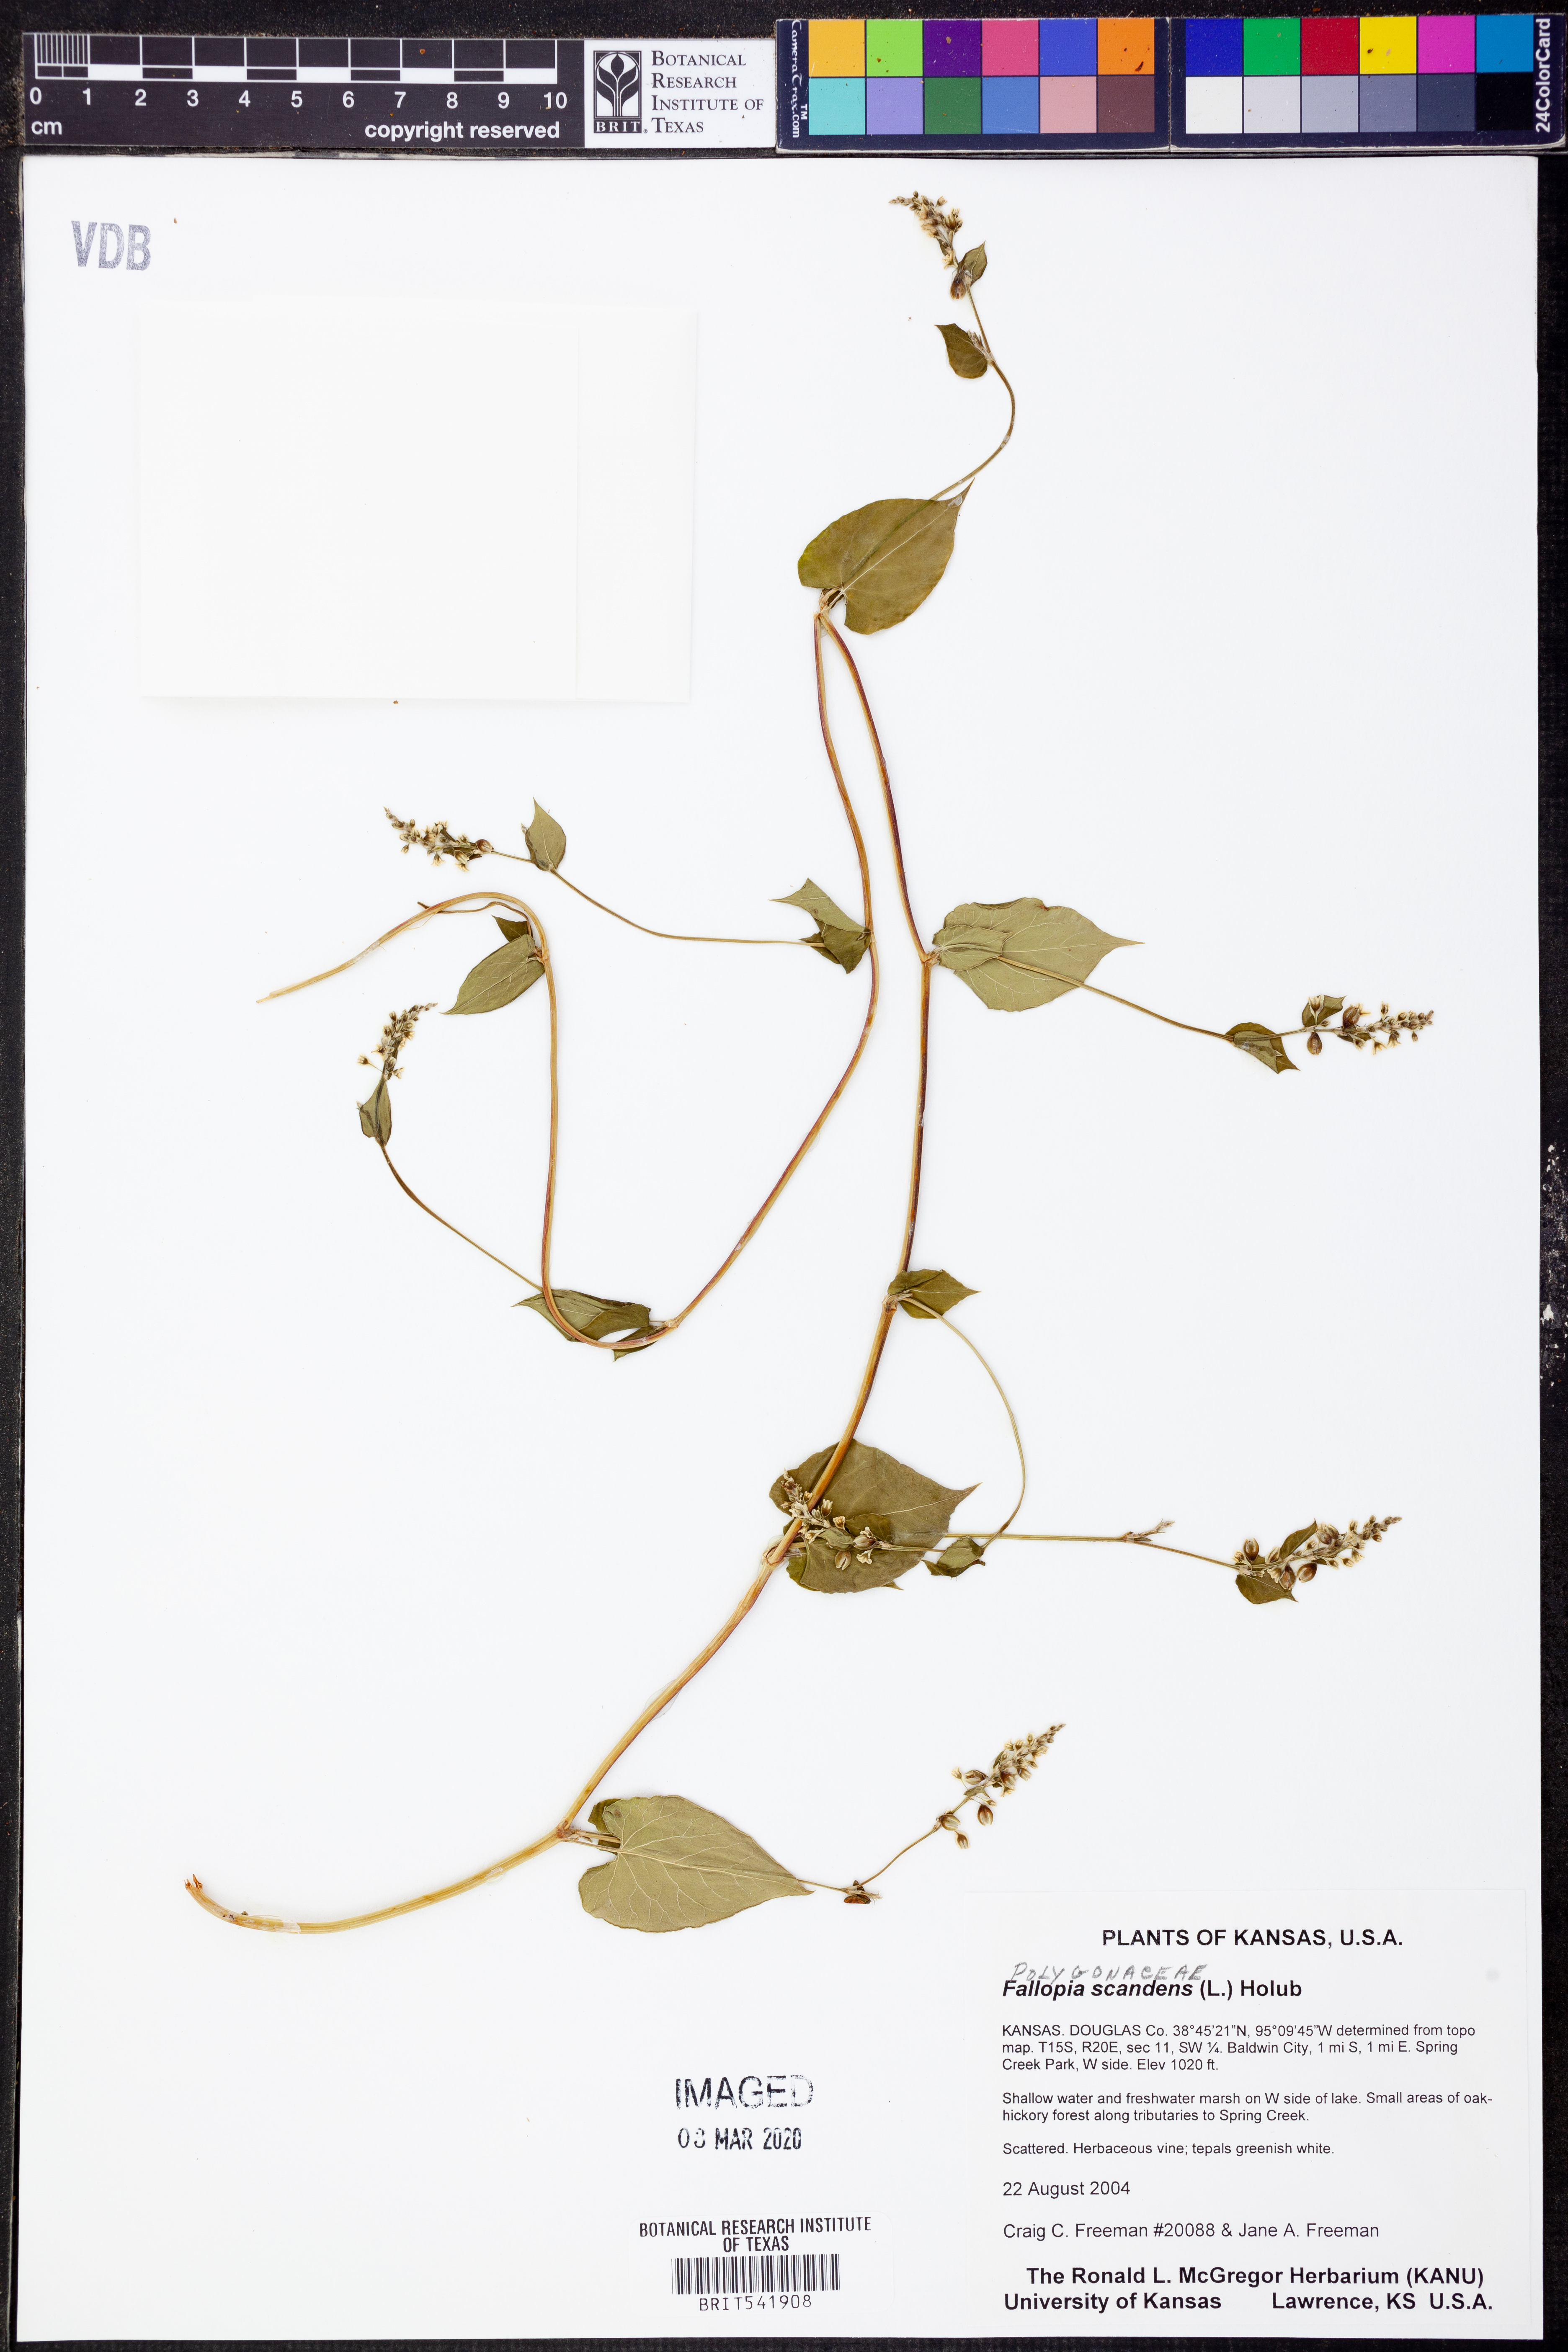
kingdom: Plantae
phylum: Tracheophyta
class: Magnoliopsida
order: Caryophyllales
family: Polygonaceae
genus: Fallopia
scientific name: Fallopia scandens
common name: Climbing false buckwheat
